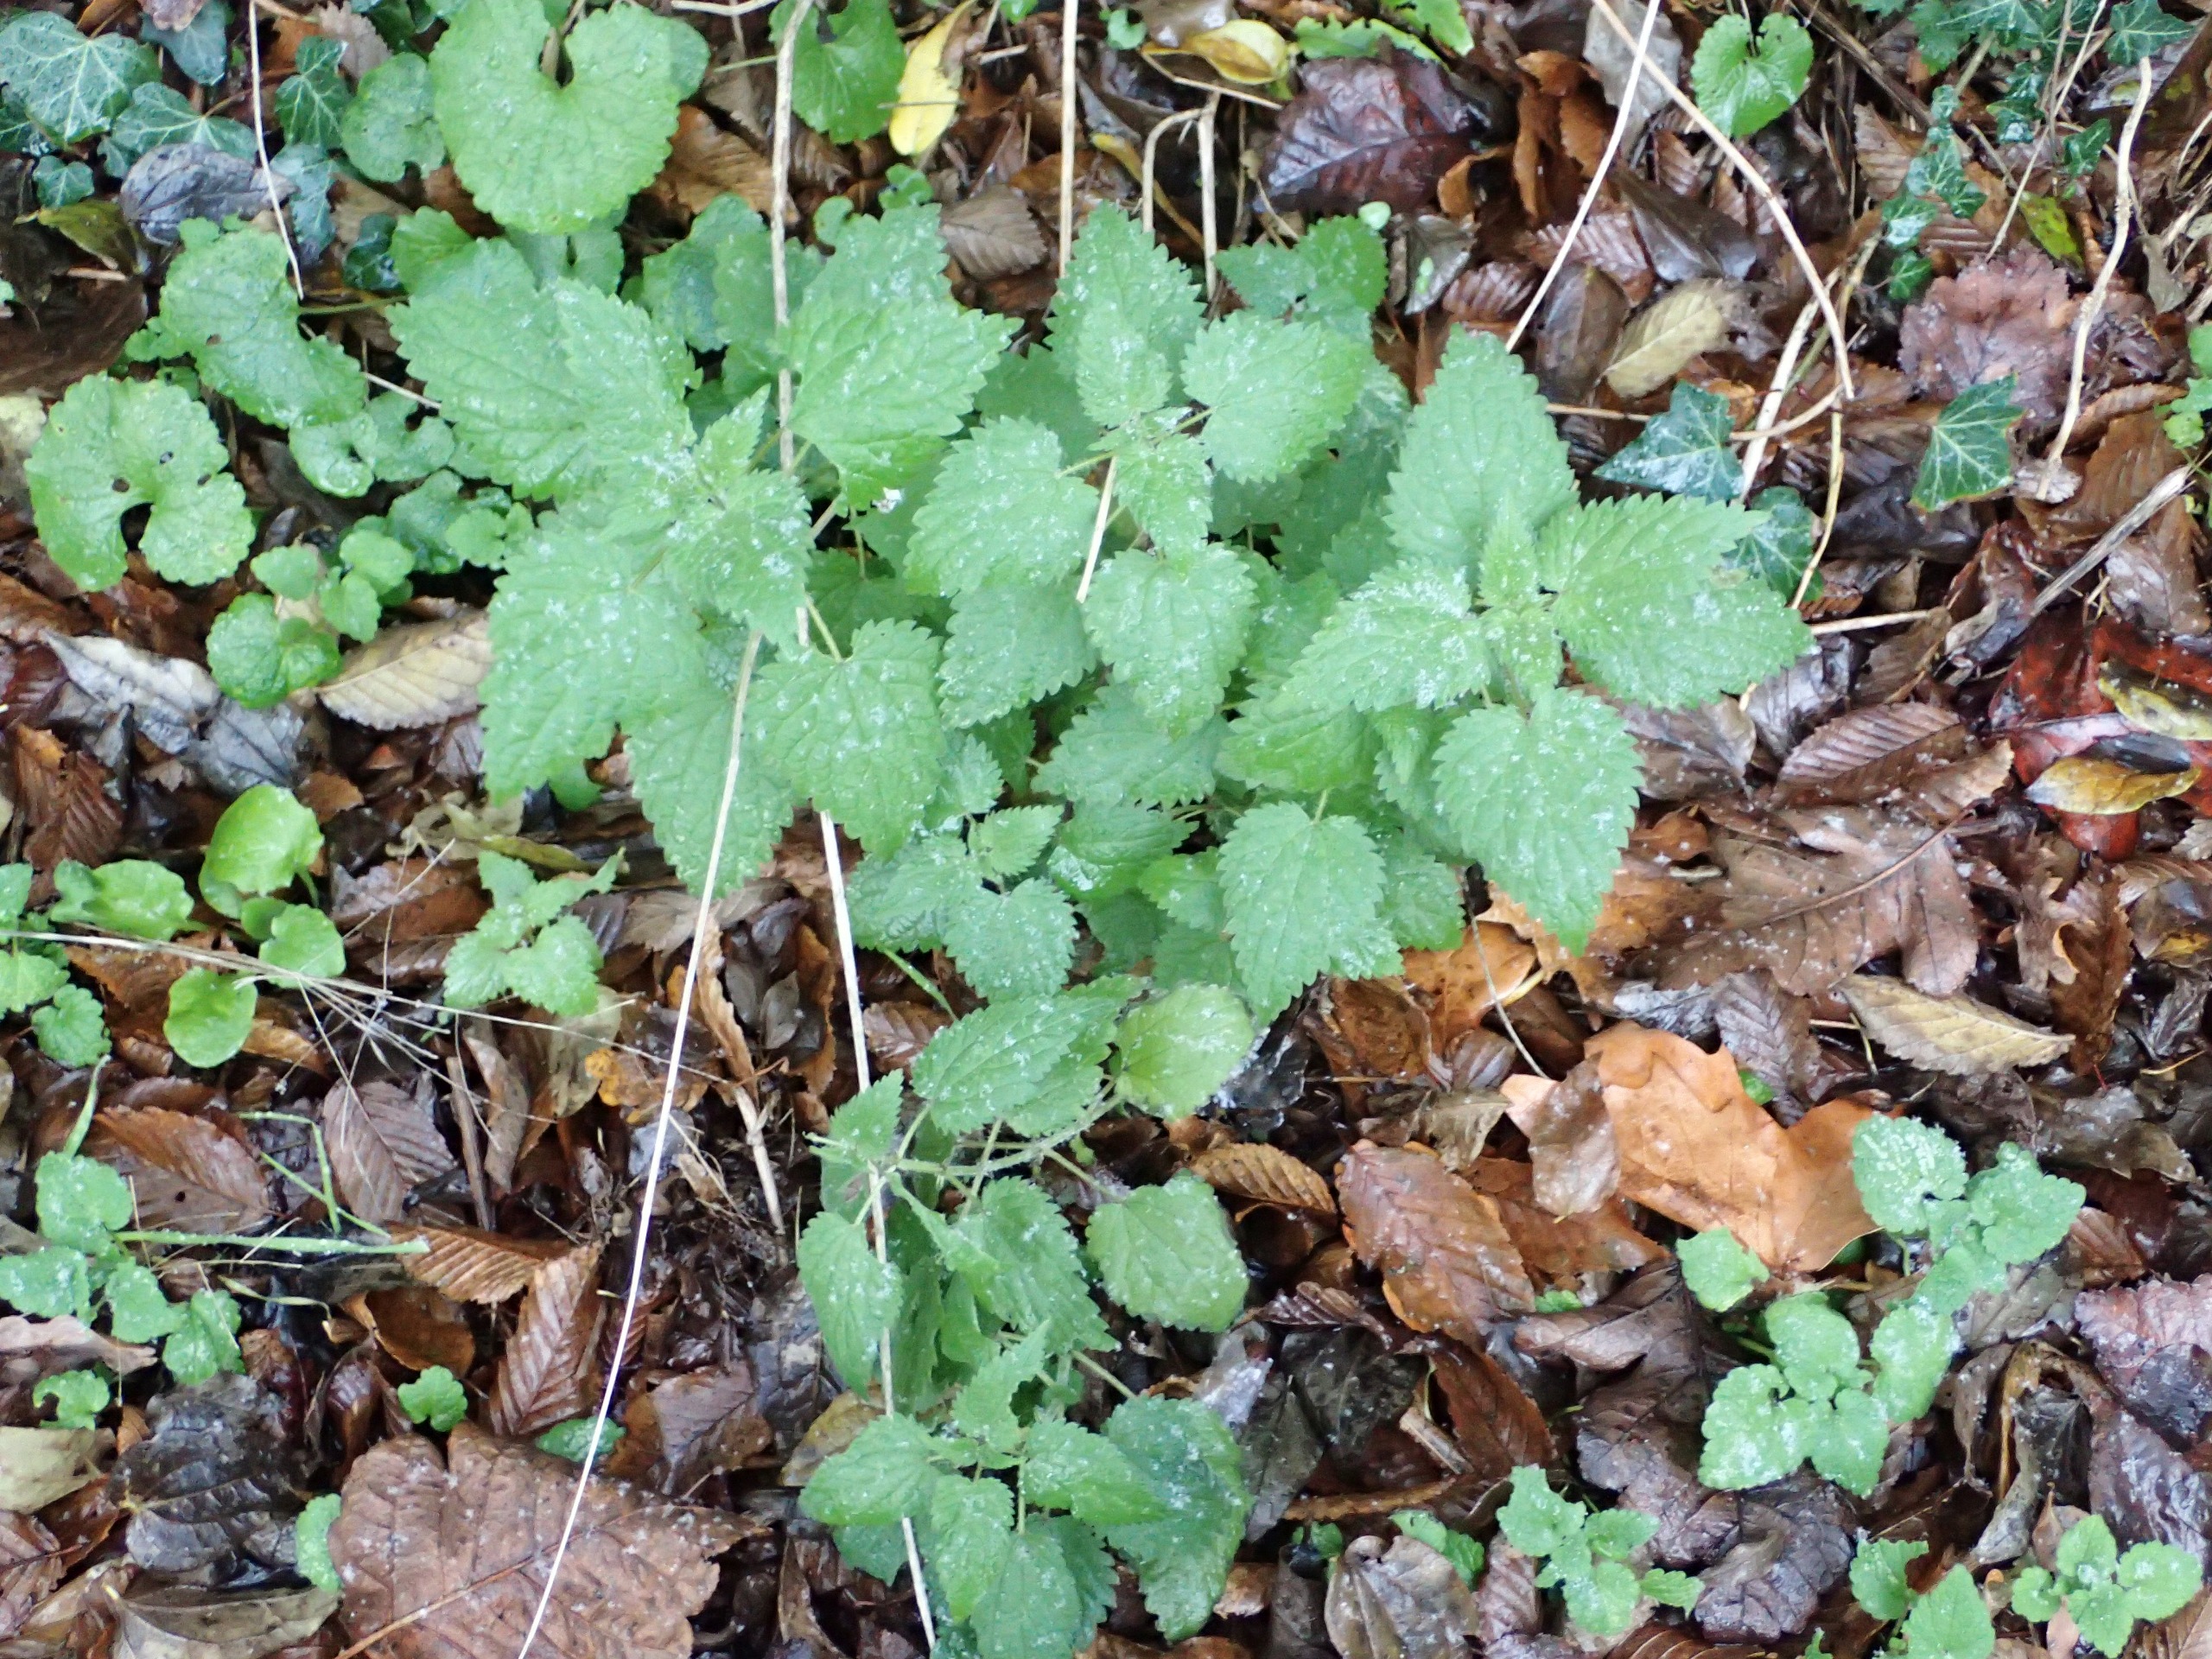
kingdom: Plantae
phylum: Tracheophyta
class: Magnoliopsida
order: Rosales
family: Urticaceae
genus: Urtica
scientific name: Urtica dioica
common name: Stor nælde
